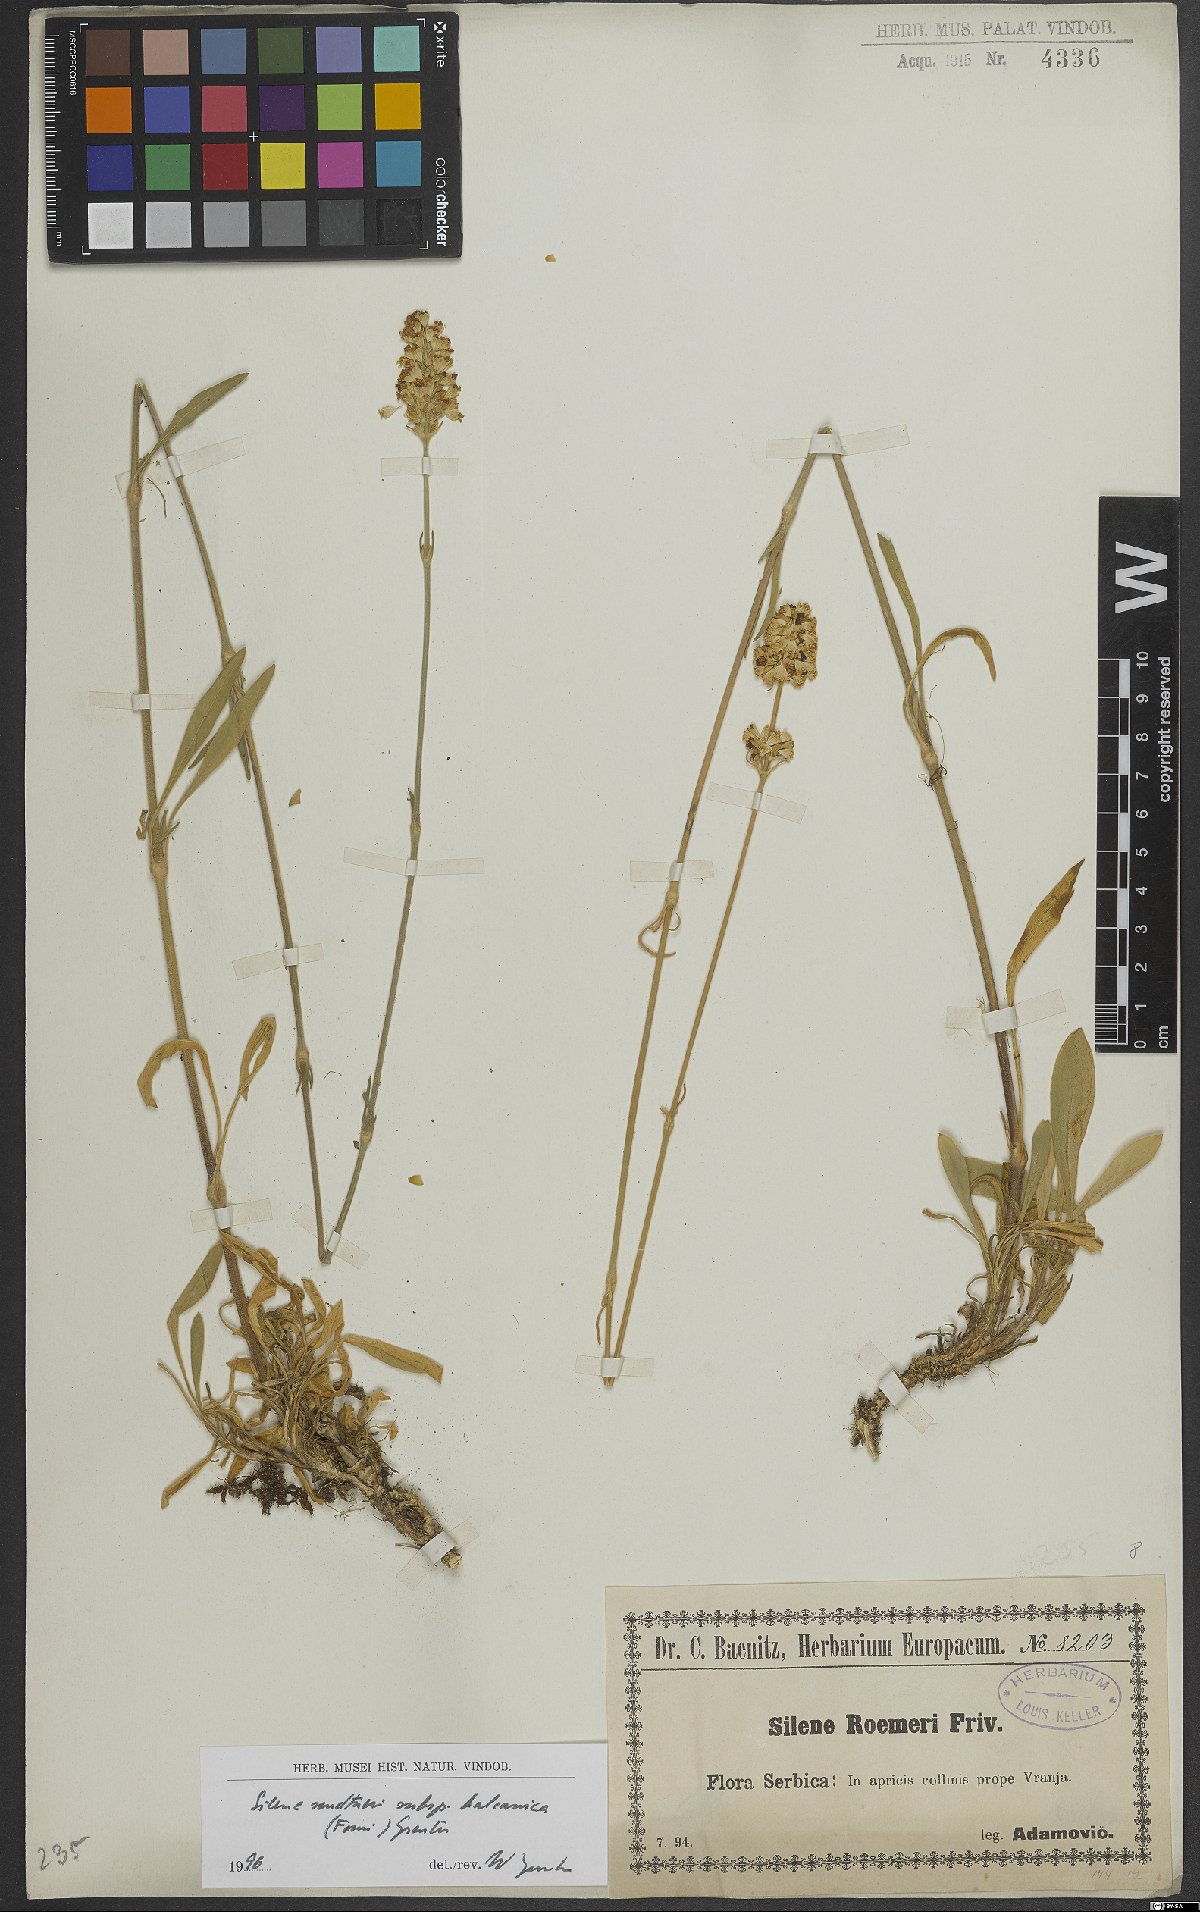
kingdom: Plantae
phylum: Tracheophyta
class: Magnoliopsida
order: Caryophyllales
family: Caryophyllaceae
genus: Silene
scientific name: Silene sendtneri
